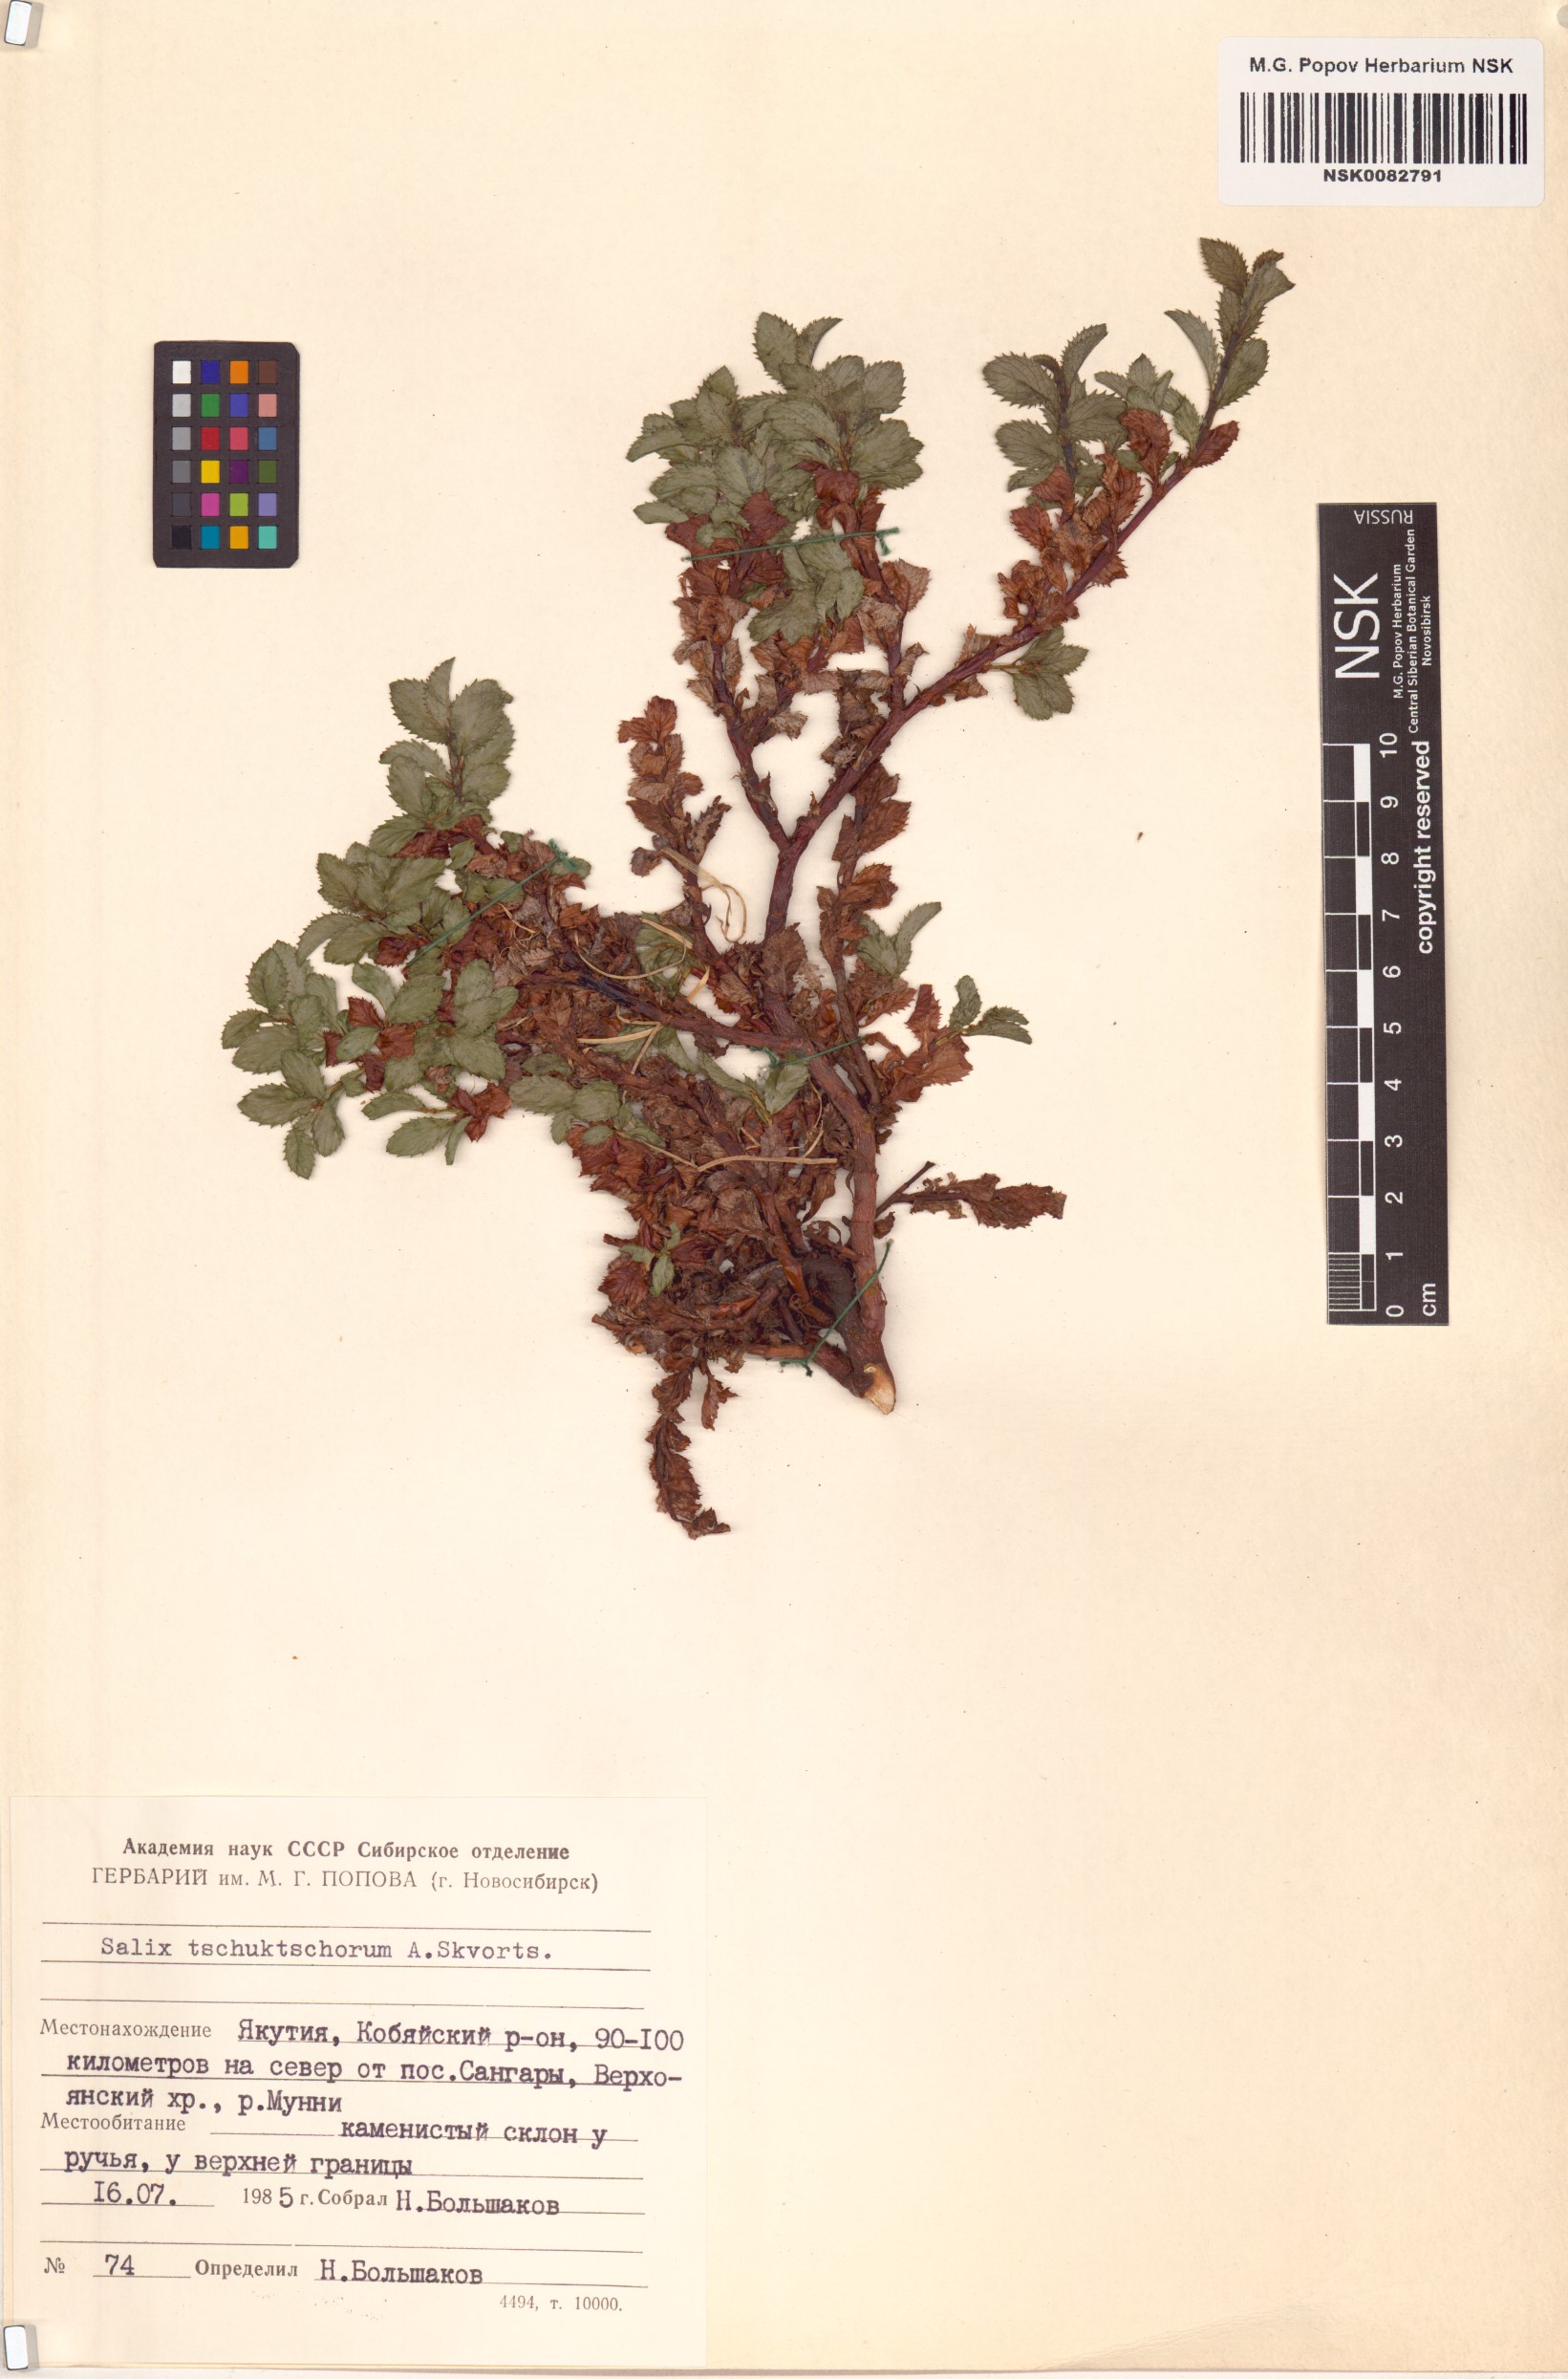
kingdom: Plantae
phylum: Tracheophyta
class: Magnoliopsida
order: Malpighiales
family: Salicaceae
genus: Salix
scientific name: Salix tschuktschorum
